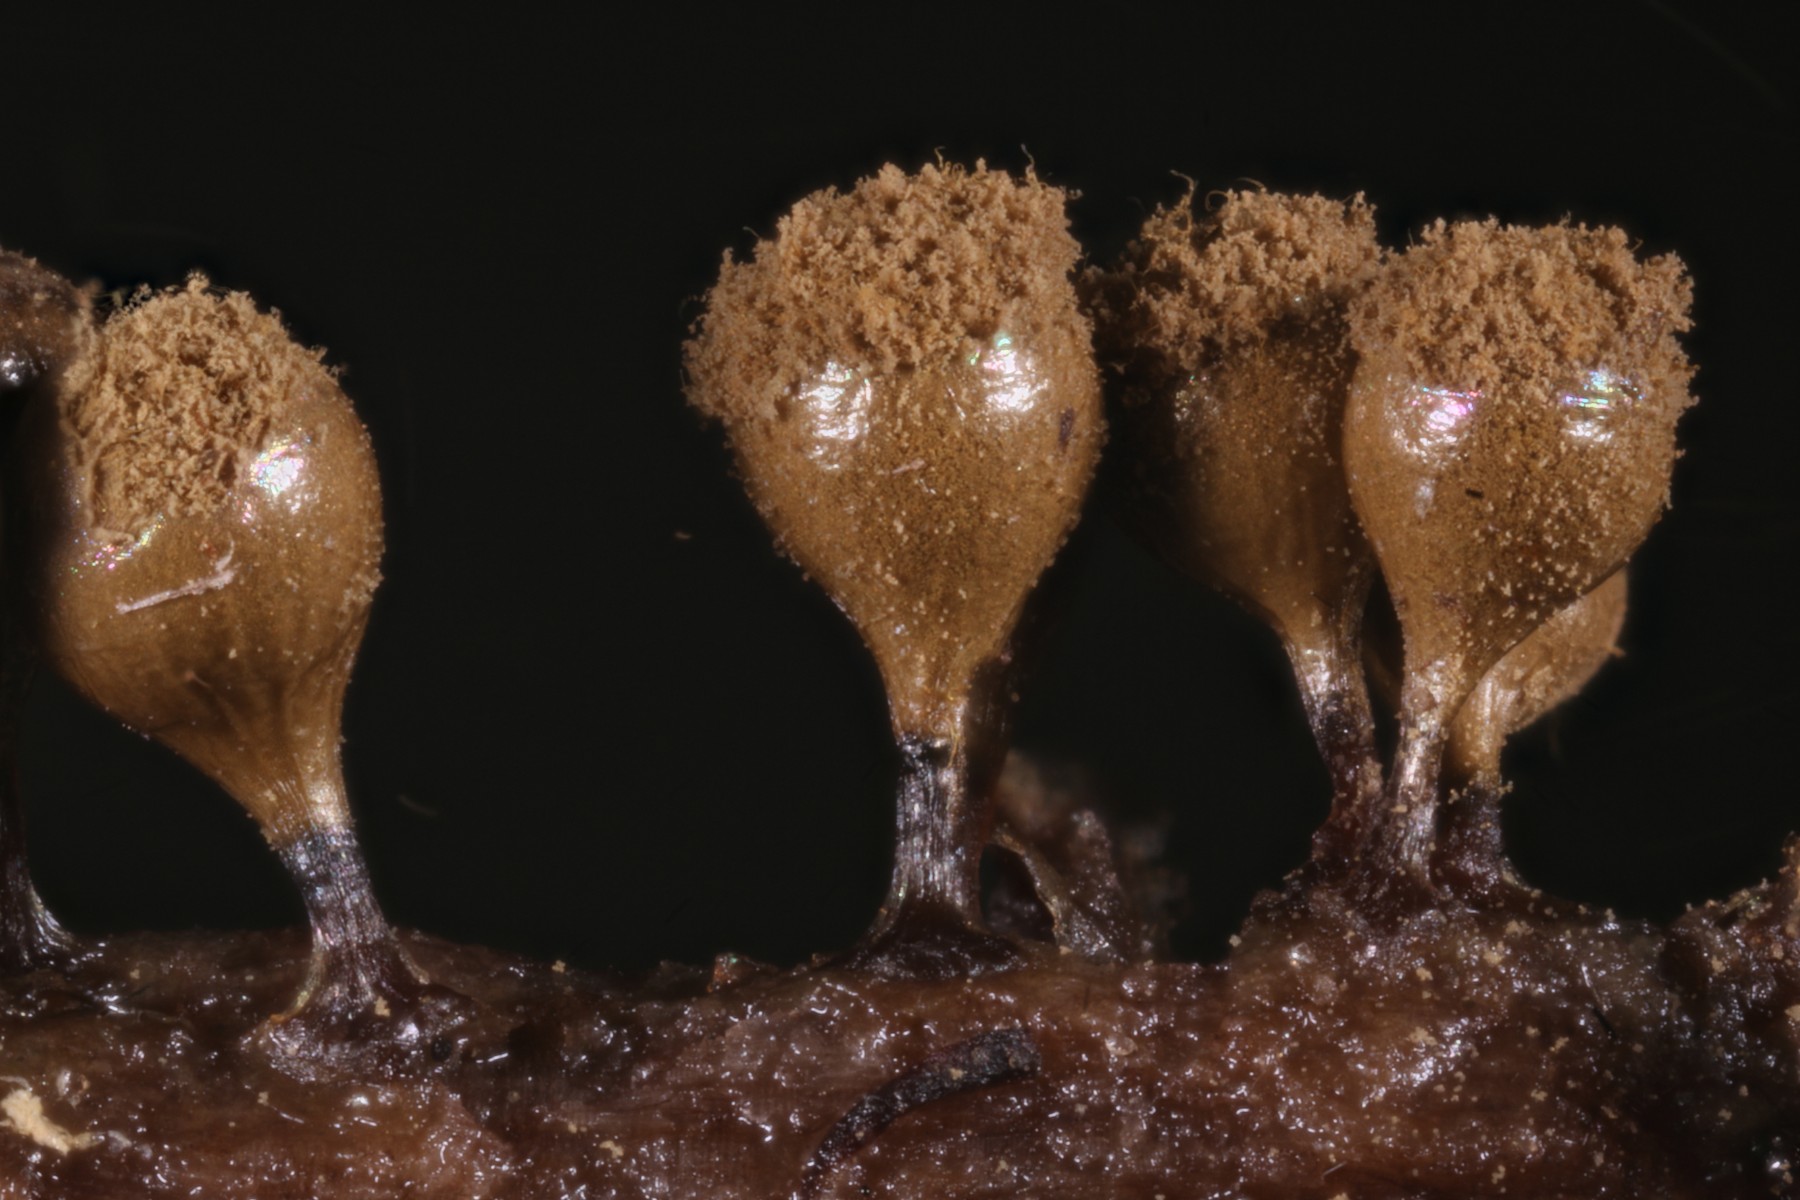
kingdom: Protozoa
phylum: Mycetozoa
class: Myxomycetes
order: Trichiales
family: Trichiaceae
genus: Trichia
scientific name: Trichia crateriformis
